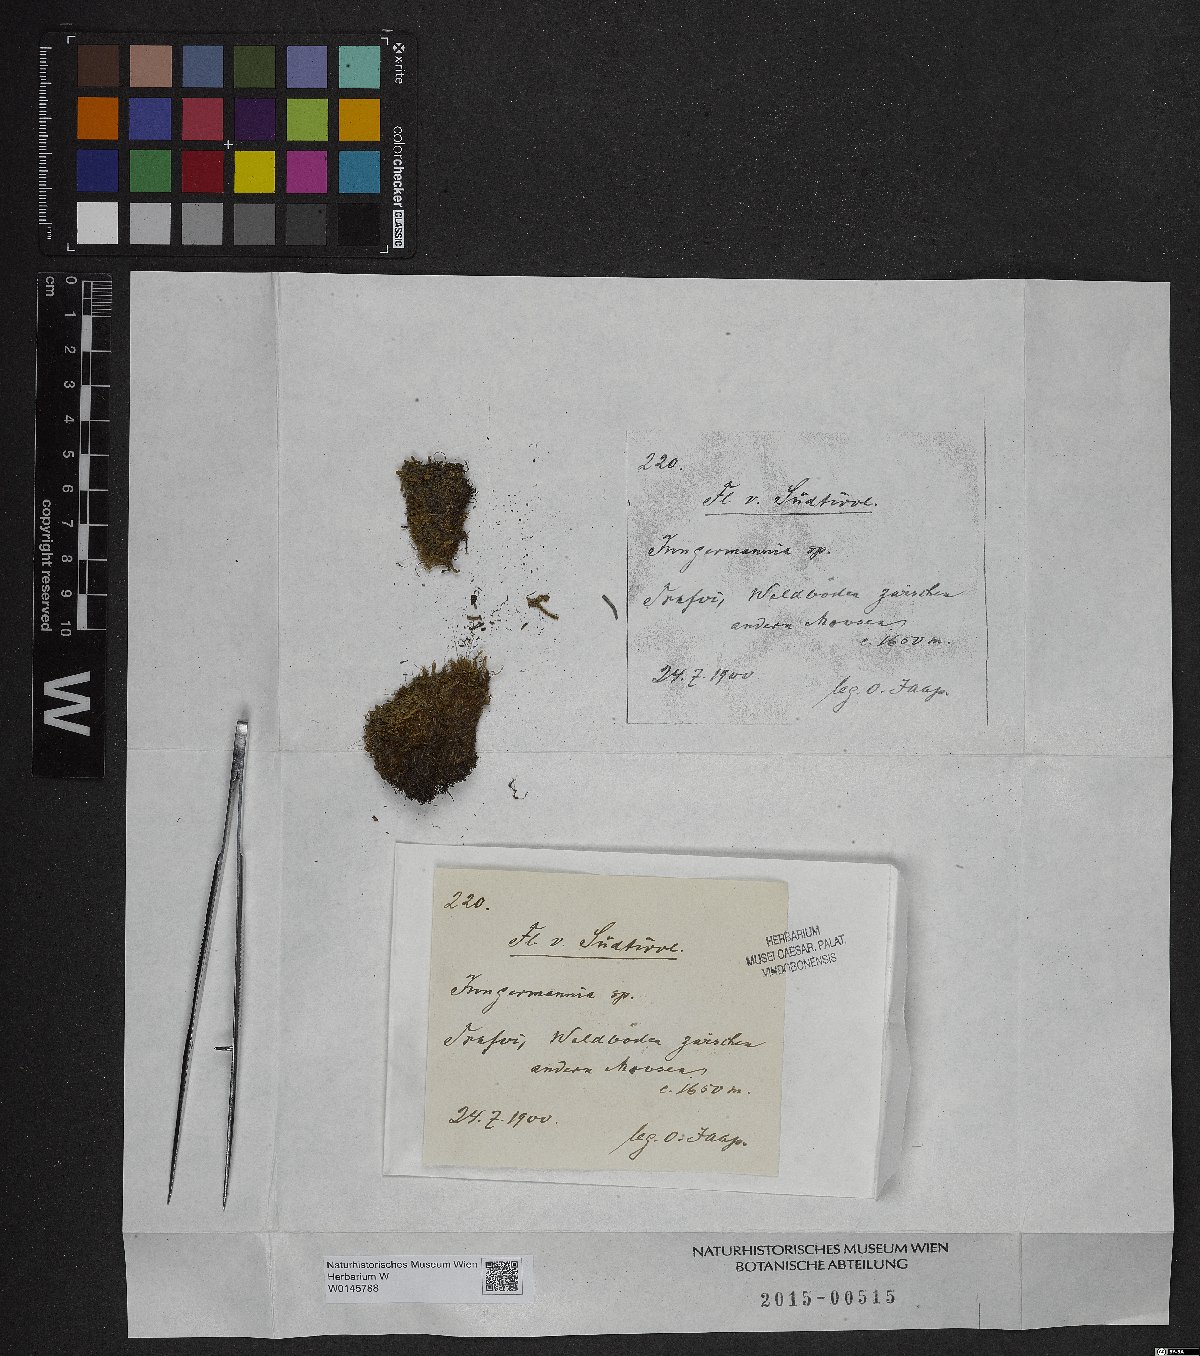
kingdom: Plantae
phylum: Marchantiophyta
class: Jungermanniopsida
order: Jungermanniales
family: Jungermanniaceae
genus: Jungermannia
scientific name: Jungermannia
